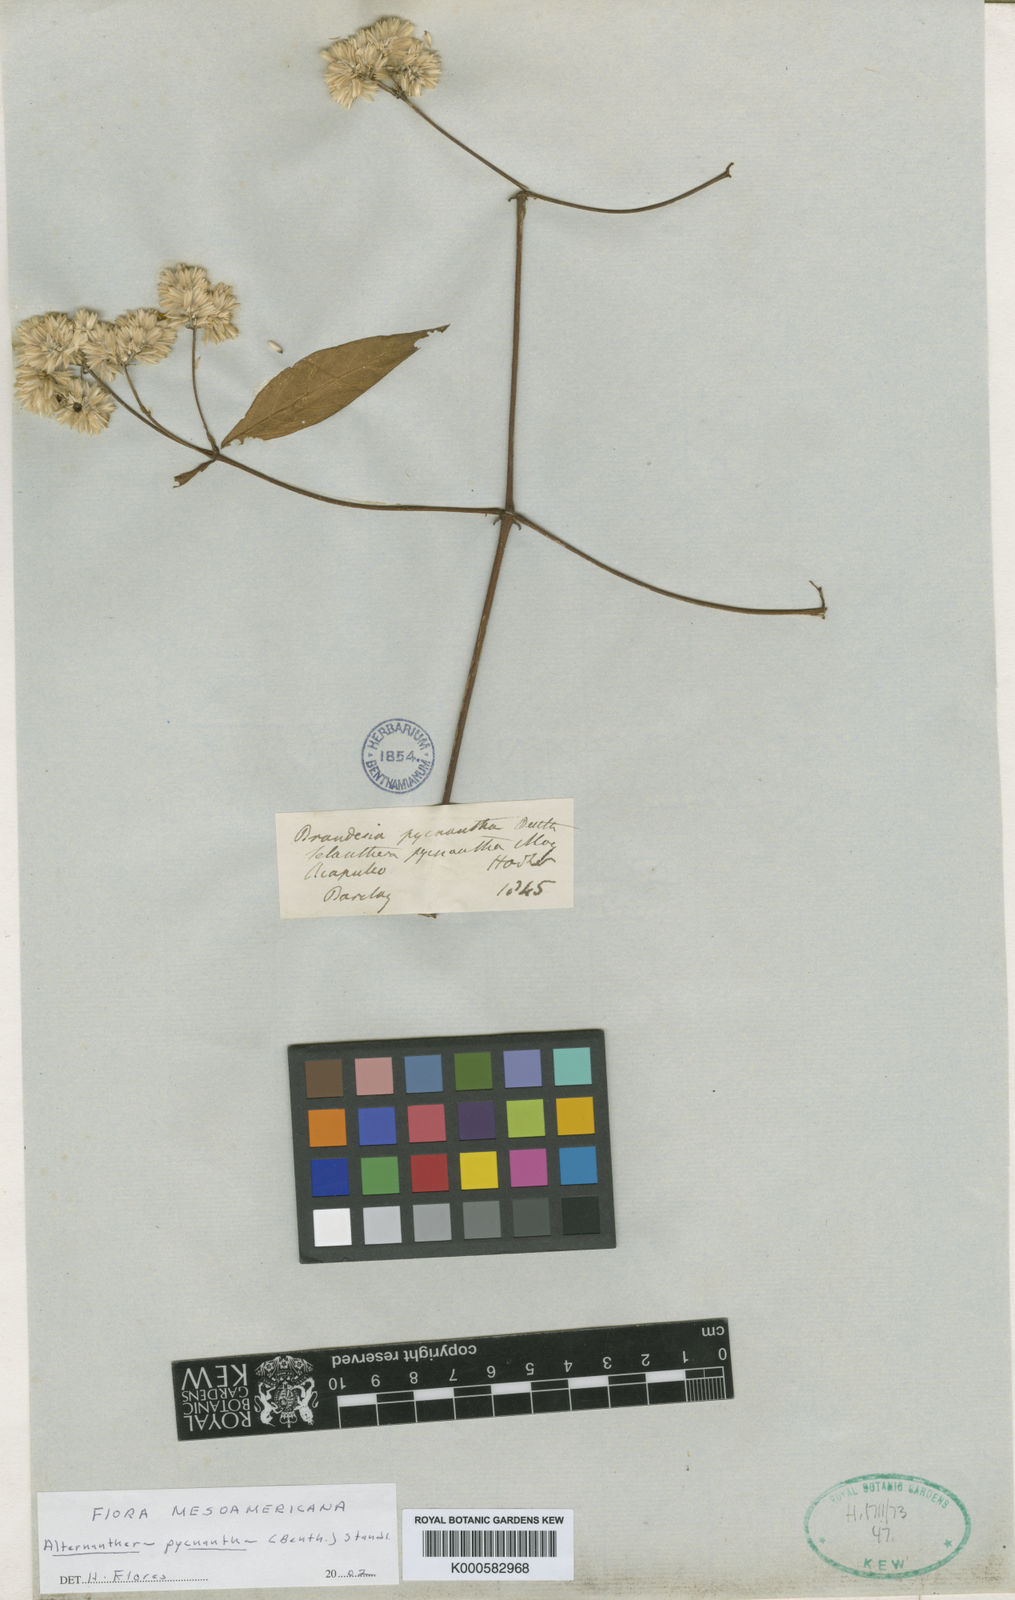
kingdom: Plantae
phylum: Tracheophyta
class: Magnoliopsida
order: Caryophyllales
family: Amaranthaceae
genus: Alternanthera
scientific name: Alternanthera pycnantha
